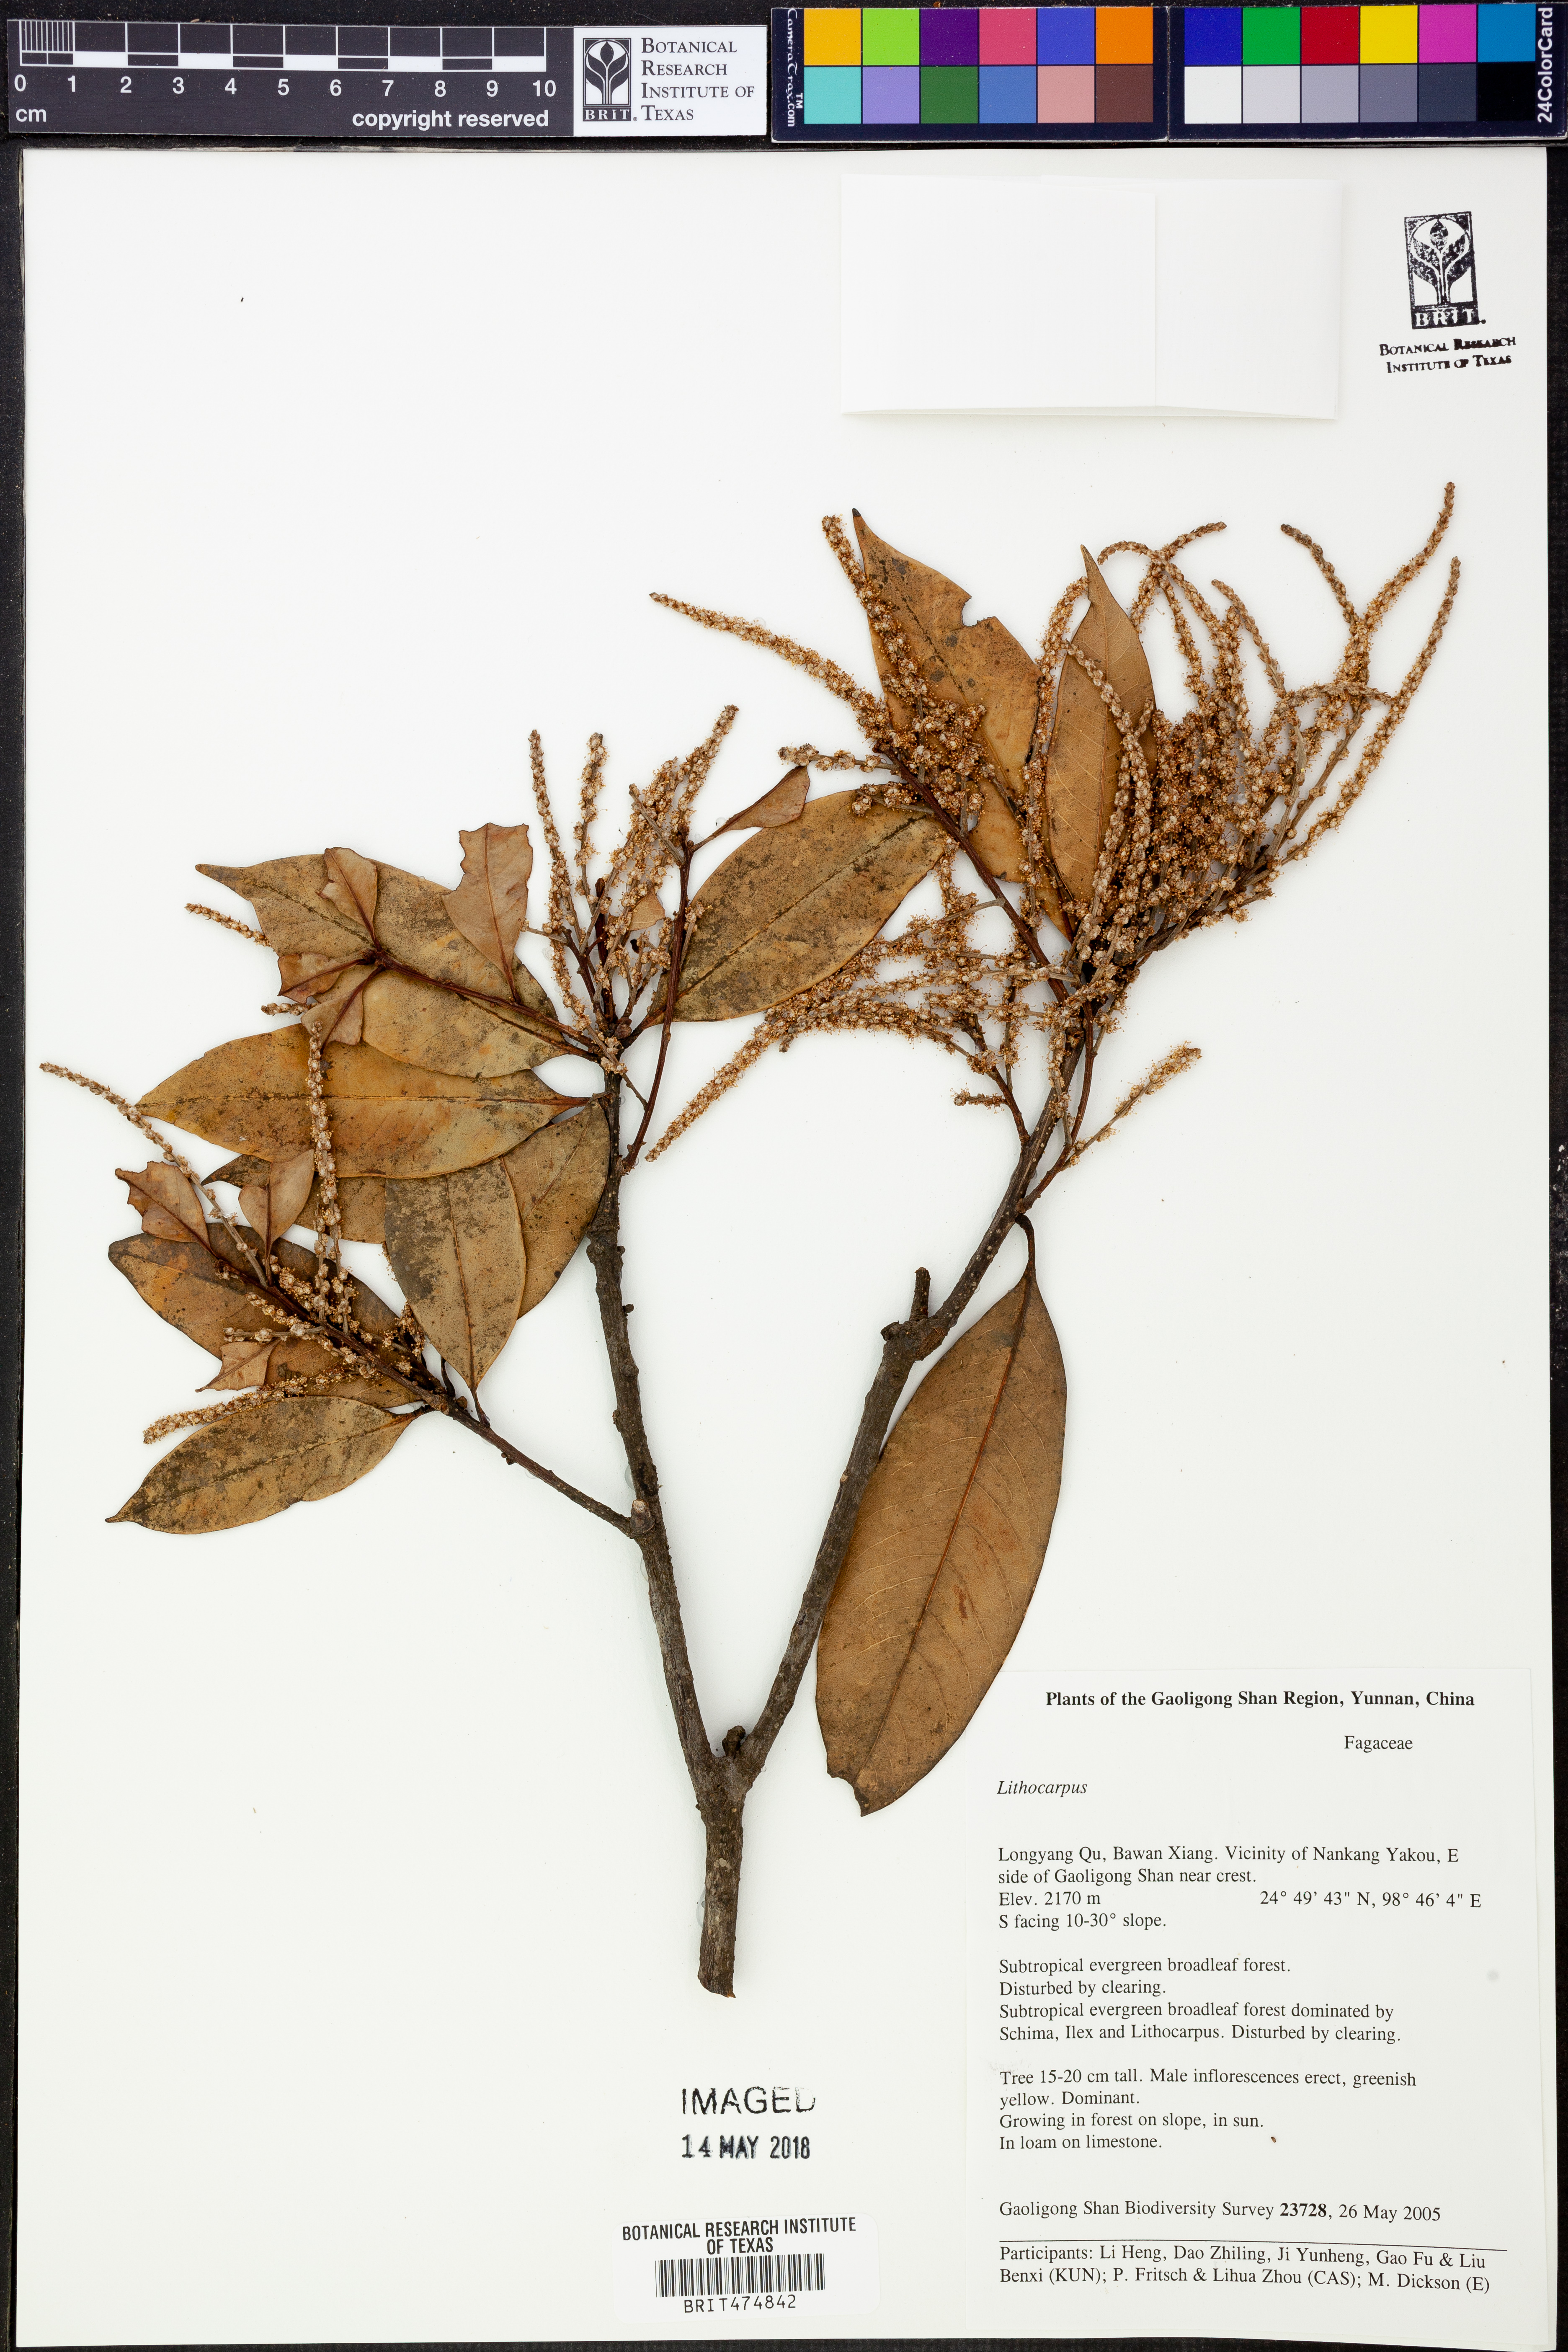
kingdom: Plantae
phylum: Tracheophyta
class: Magnoliopsida
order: Fagales
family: Fagaceae
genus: Lithocarpus
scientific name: Lithocarpus
